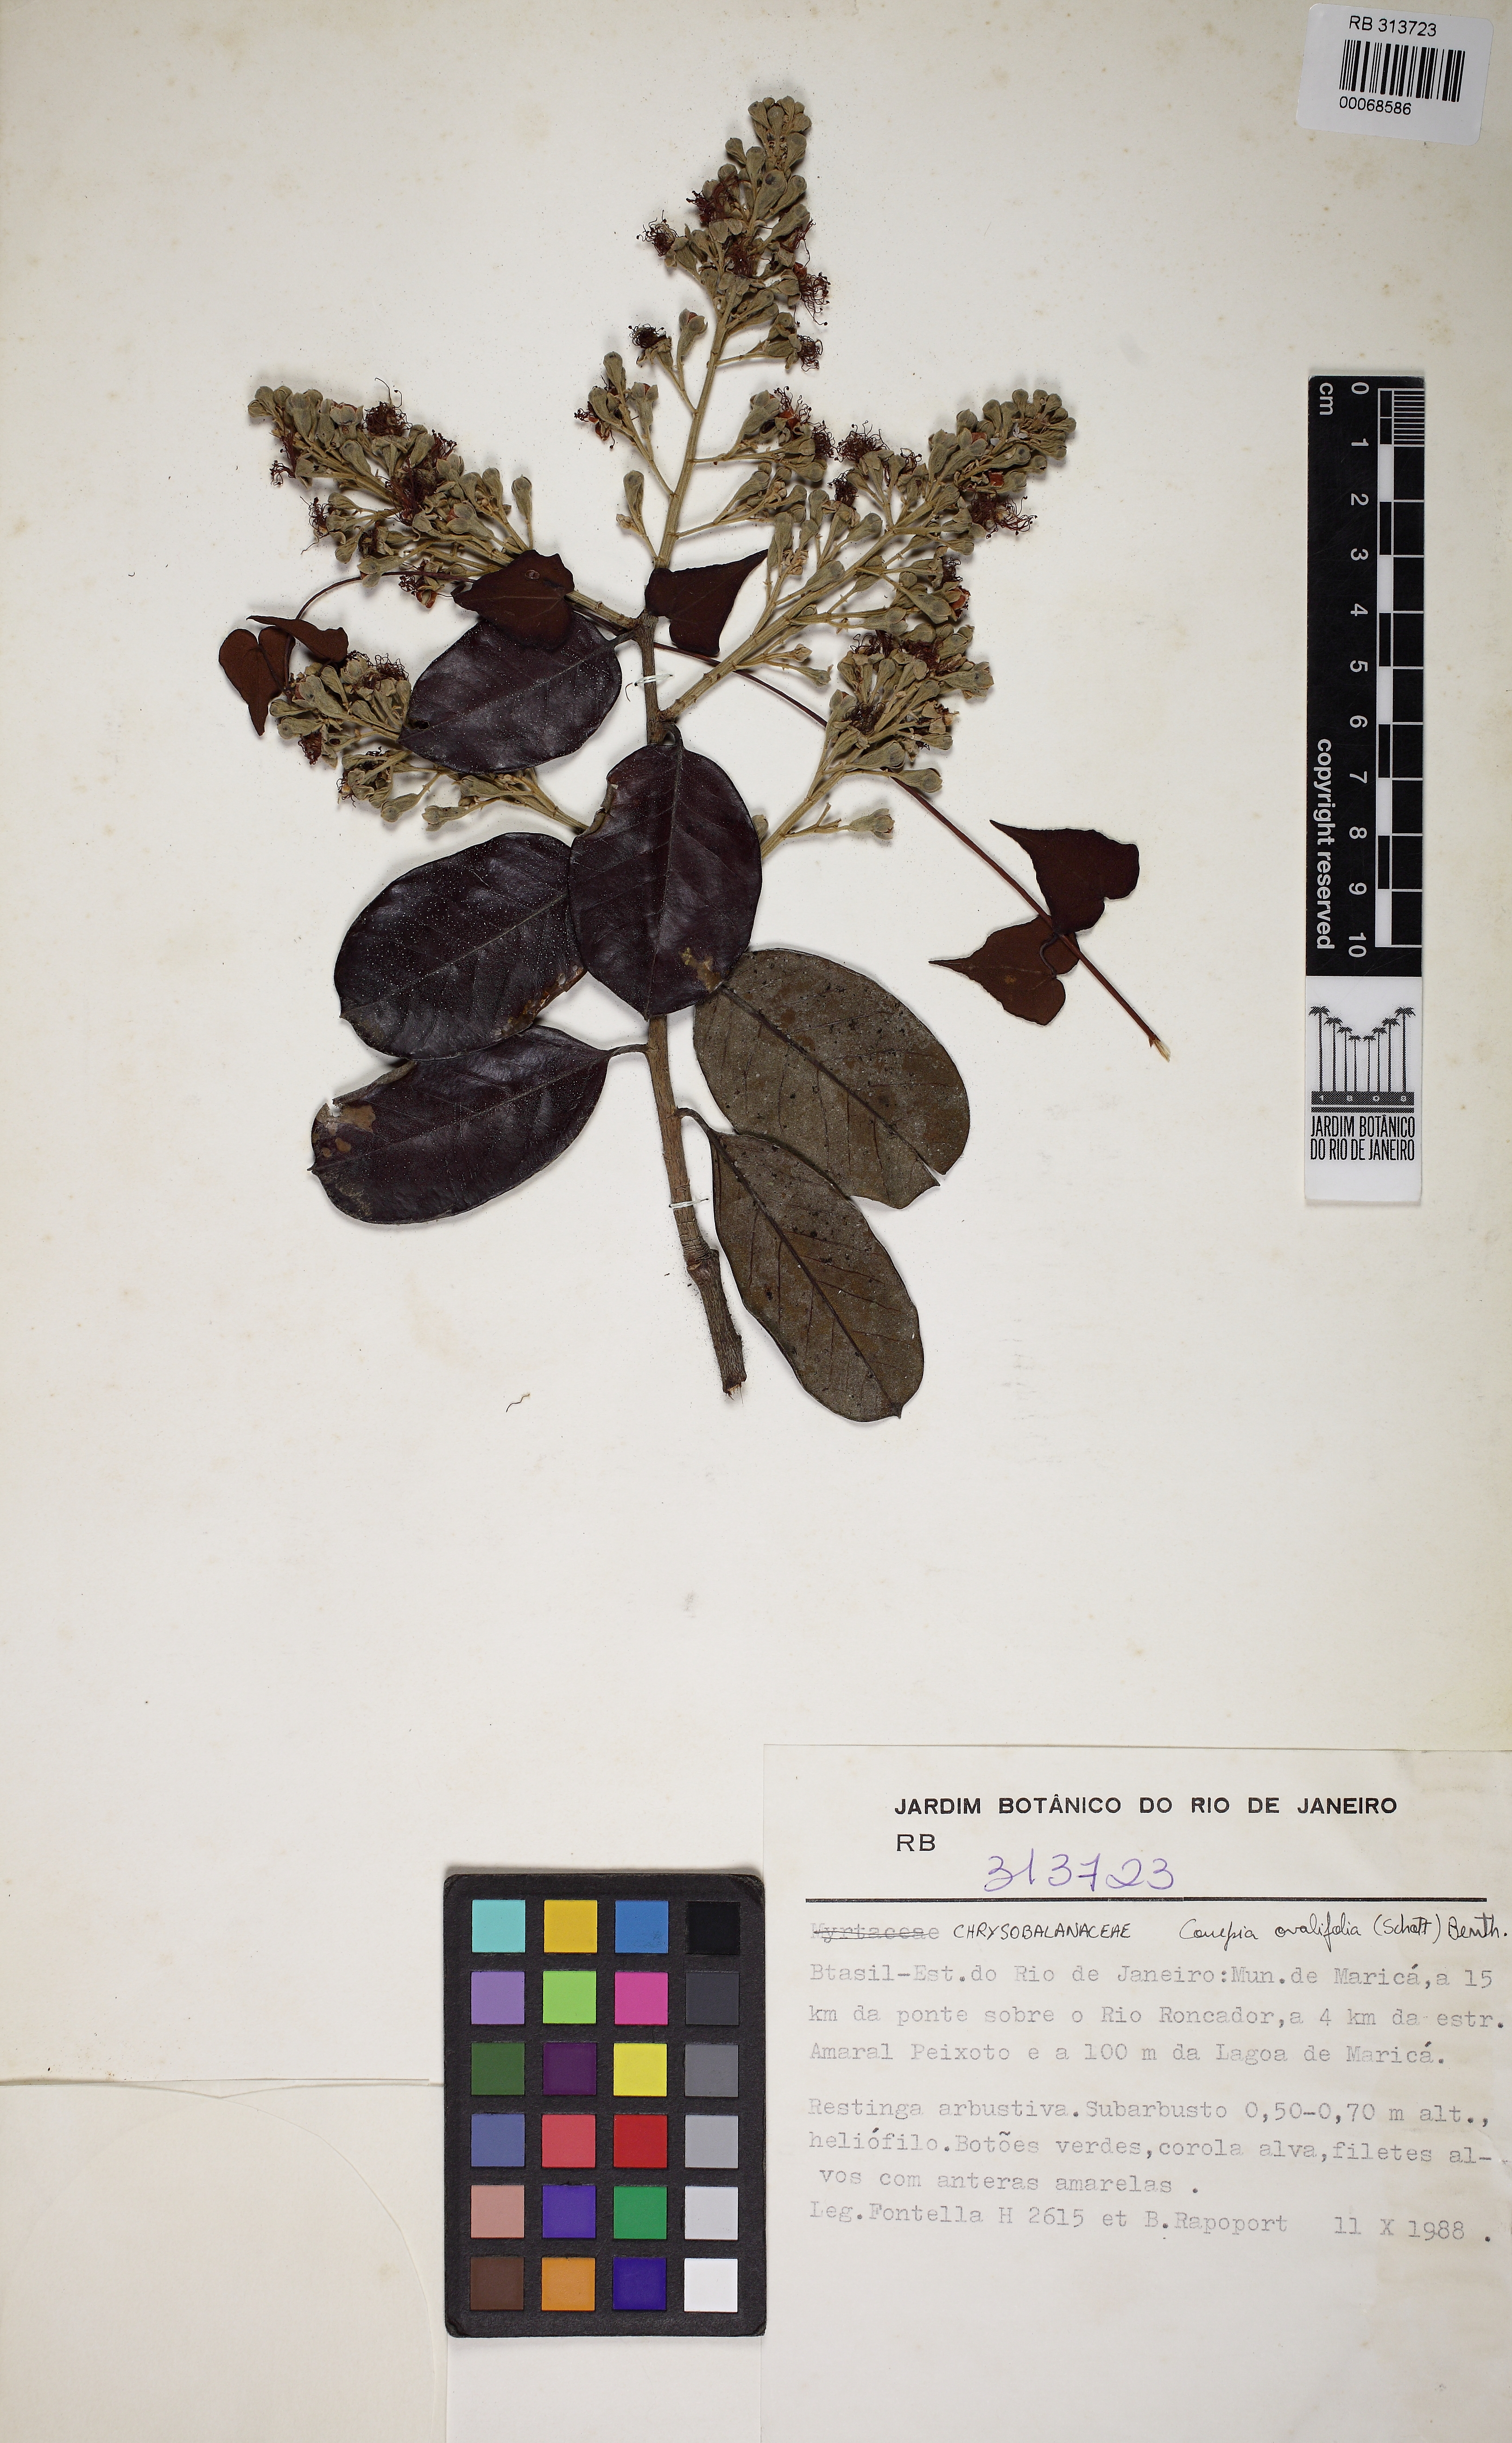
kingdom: Plantae
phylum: Tracheophyta
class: Magnoliopsida
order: Malpighiales
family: Chrysobalanaceae
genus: Couepia
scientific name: Couepia ovalifolia
